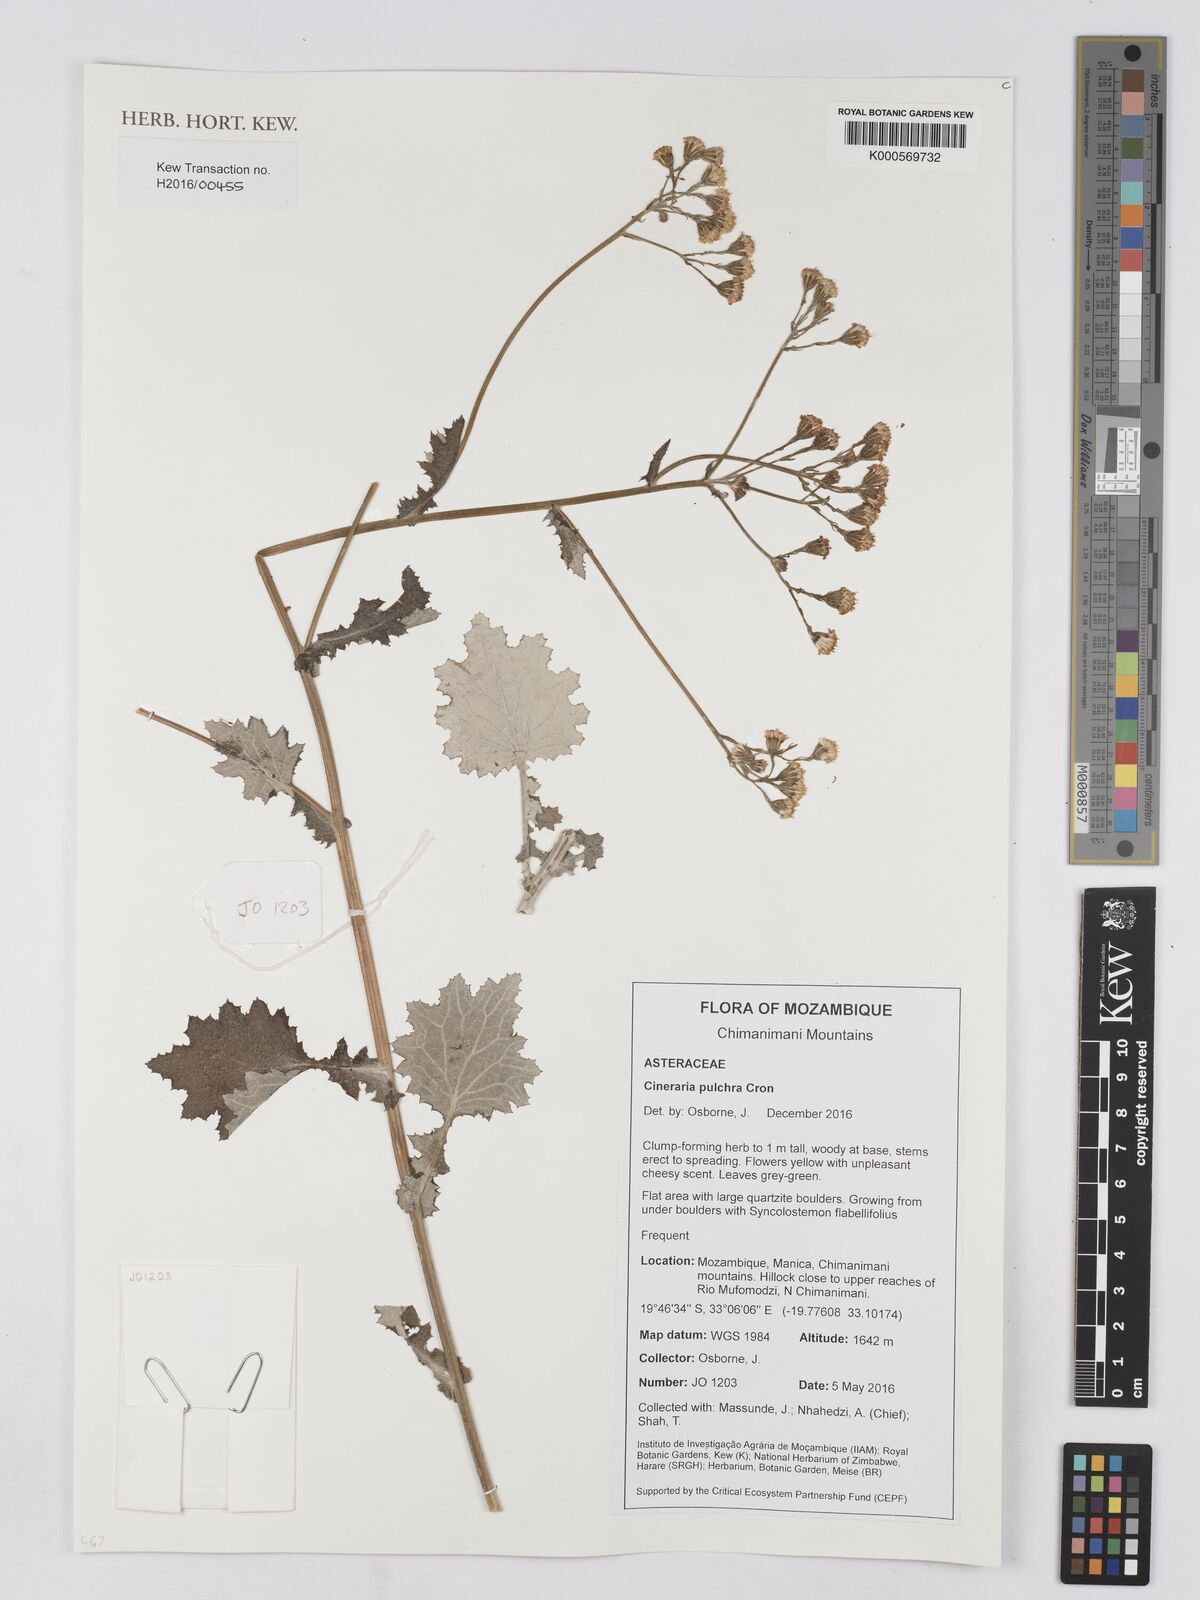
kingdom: Plantae
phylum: Tracheophyta
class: Magnoliopsida
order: Asterales
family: Asteraceae
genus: Cineraria
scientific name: Cineraria pulchra
